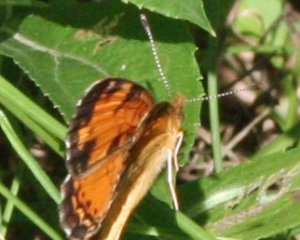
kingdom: Animalia
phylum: Arthropoda
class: Insecta
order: Lepidoptera
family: Nymphalidae
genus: Phyciodes
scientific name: Phyciodes tharos
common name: Northern Crescent
